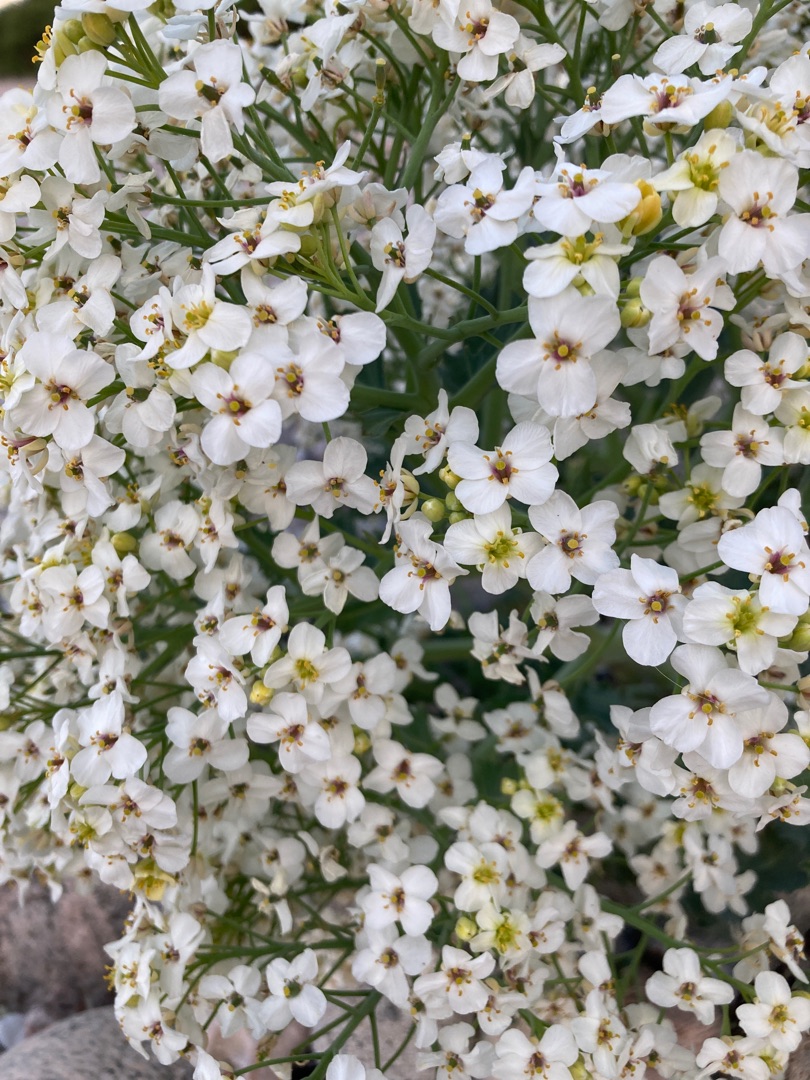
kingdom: Plantae
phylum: Tracheophyta
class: Magnoliopsida
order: Brassicales
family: Brassicaceae
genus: Crambe
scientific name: Crambe maritima
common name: Strandkål
